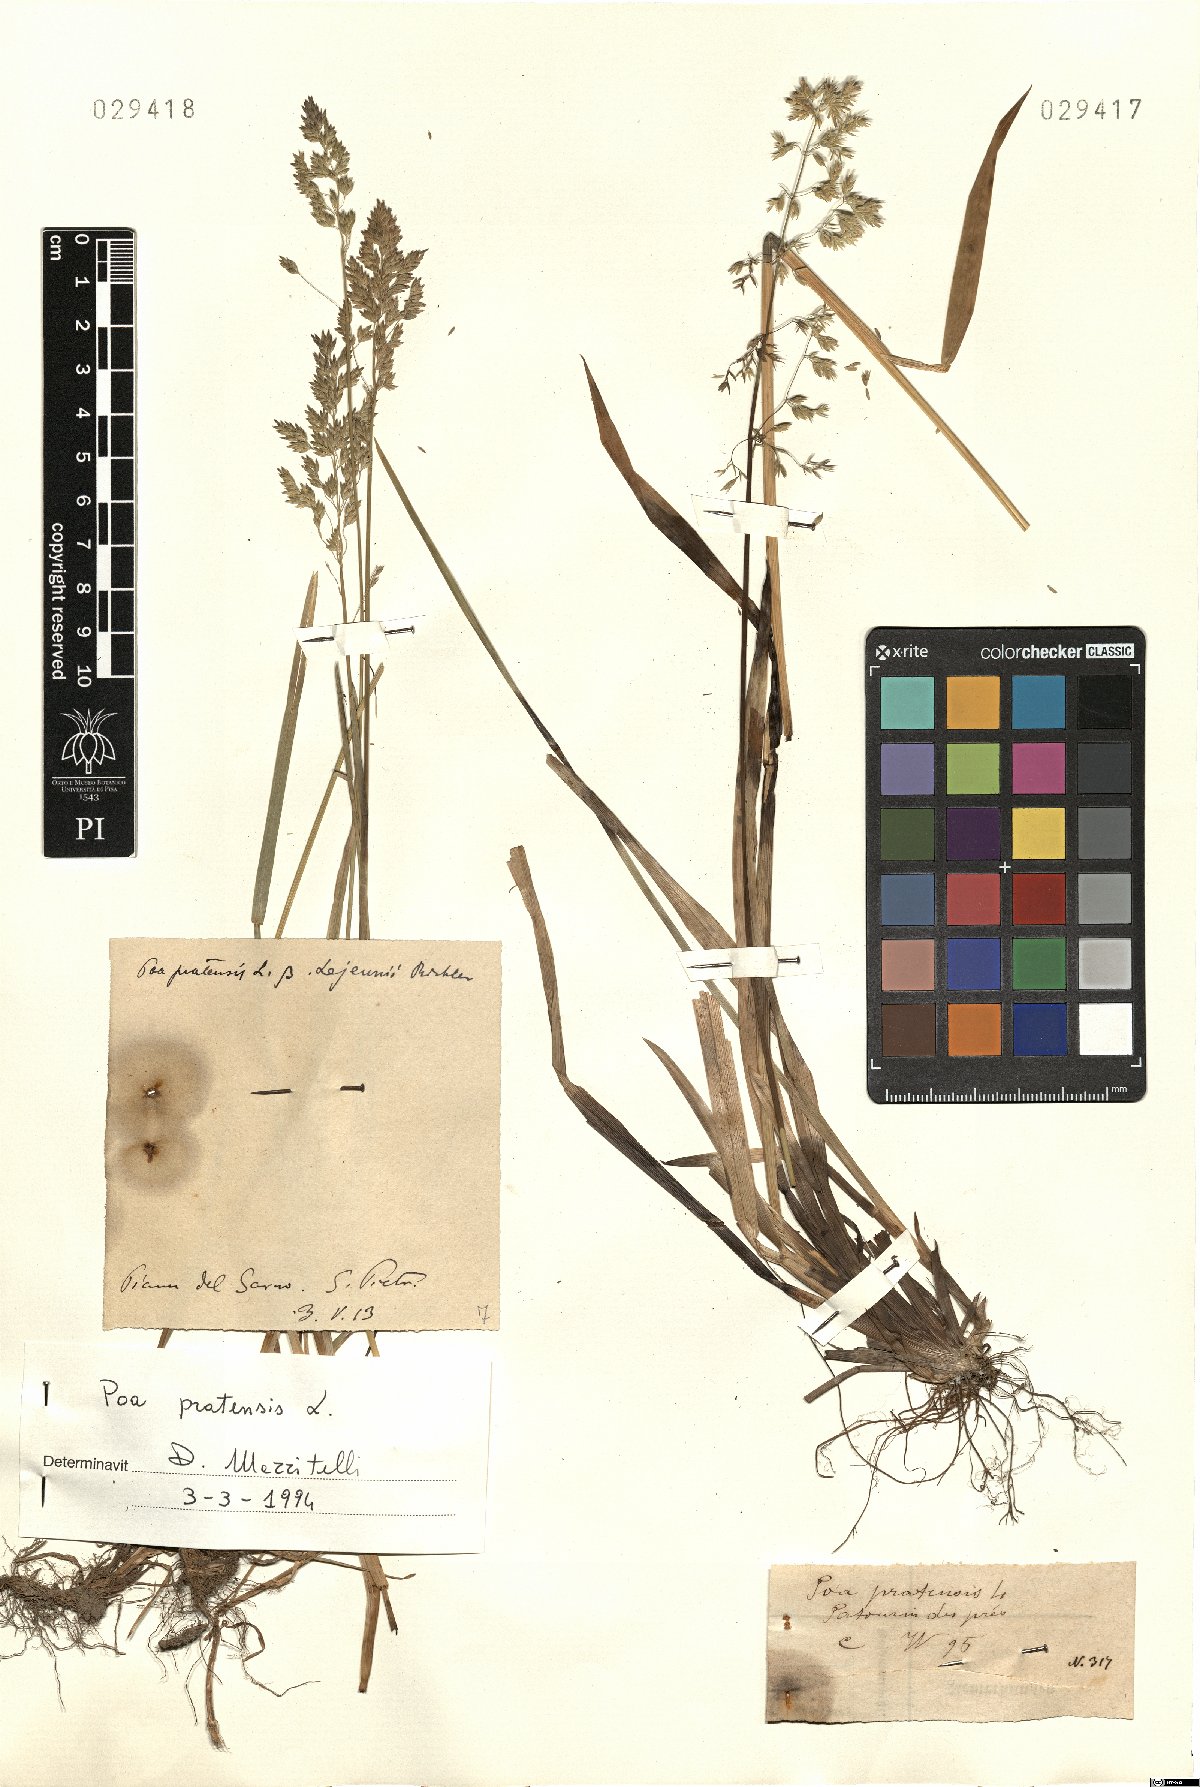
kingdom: Plantae
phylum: Tracheophyta
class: Liliopsida
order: Poales
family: Poaceae
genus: Poa
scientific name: Poa pratensis
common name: Kentucky bluegrass
